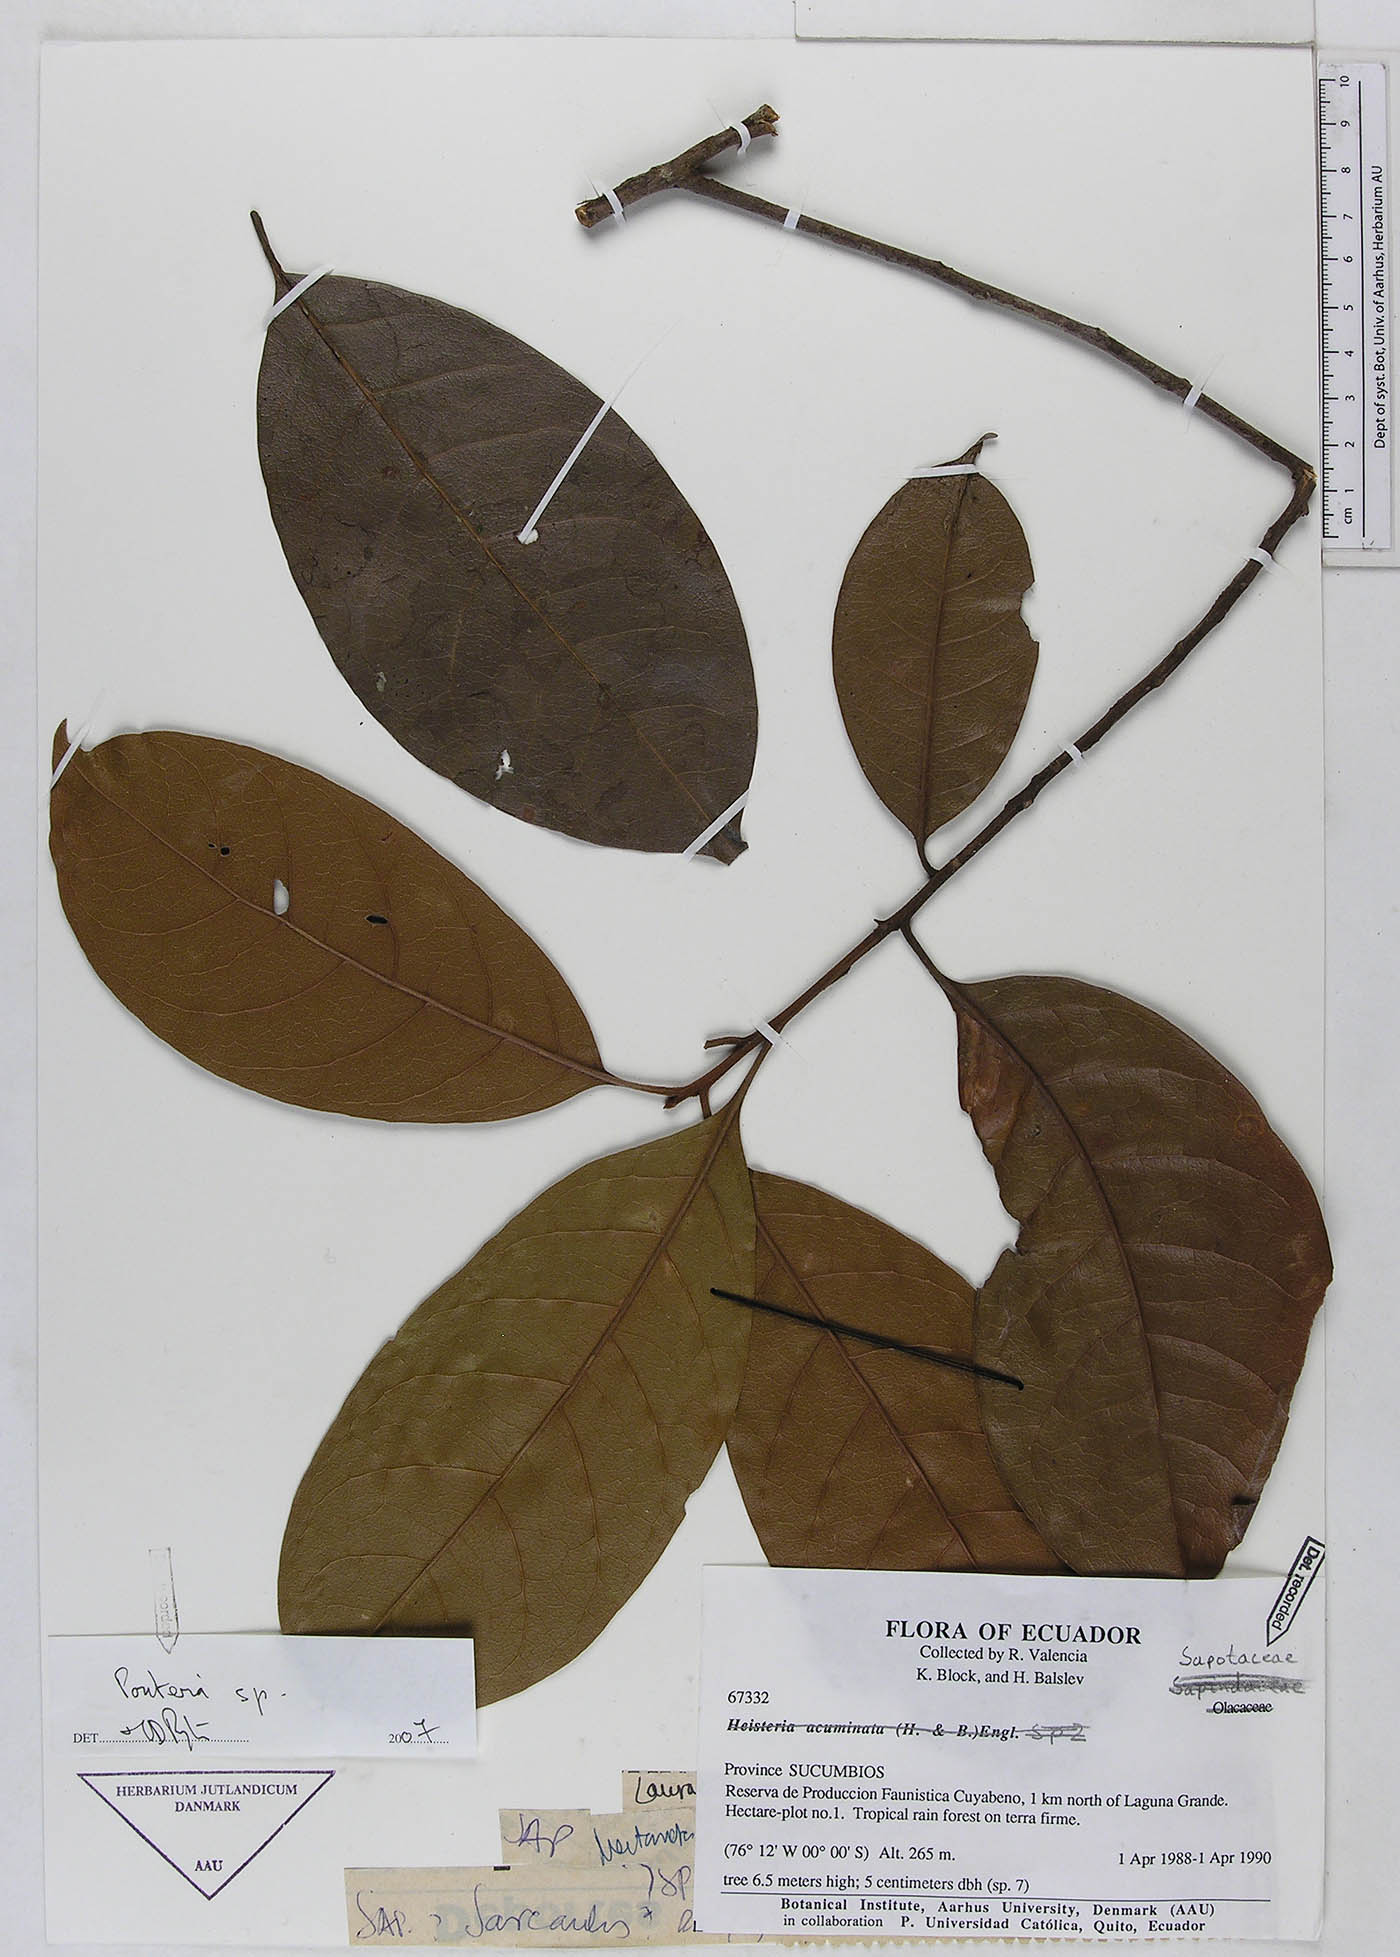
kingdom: Plantae
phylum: Tracheophyta
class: Magnoliopsida
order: Ericales
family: Sapotaceae
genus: Pouteria
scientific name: Pouteria
